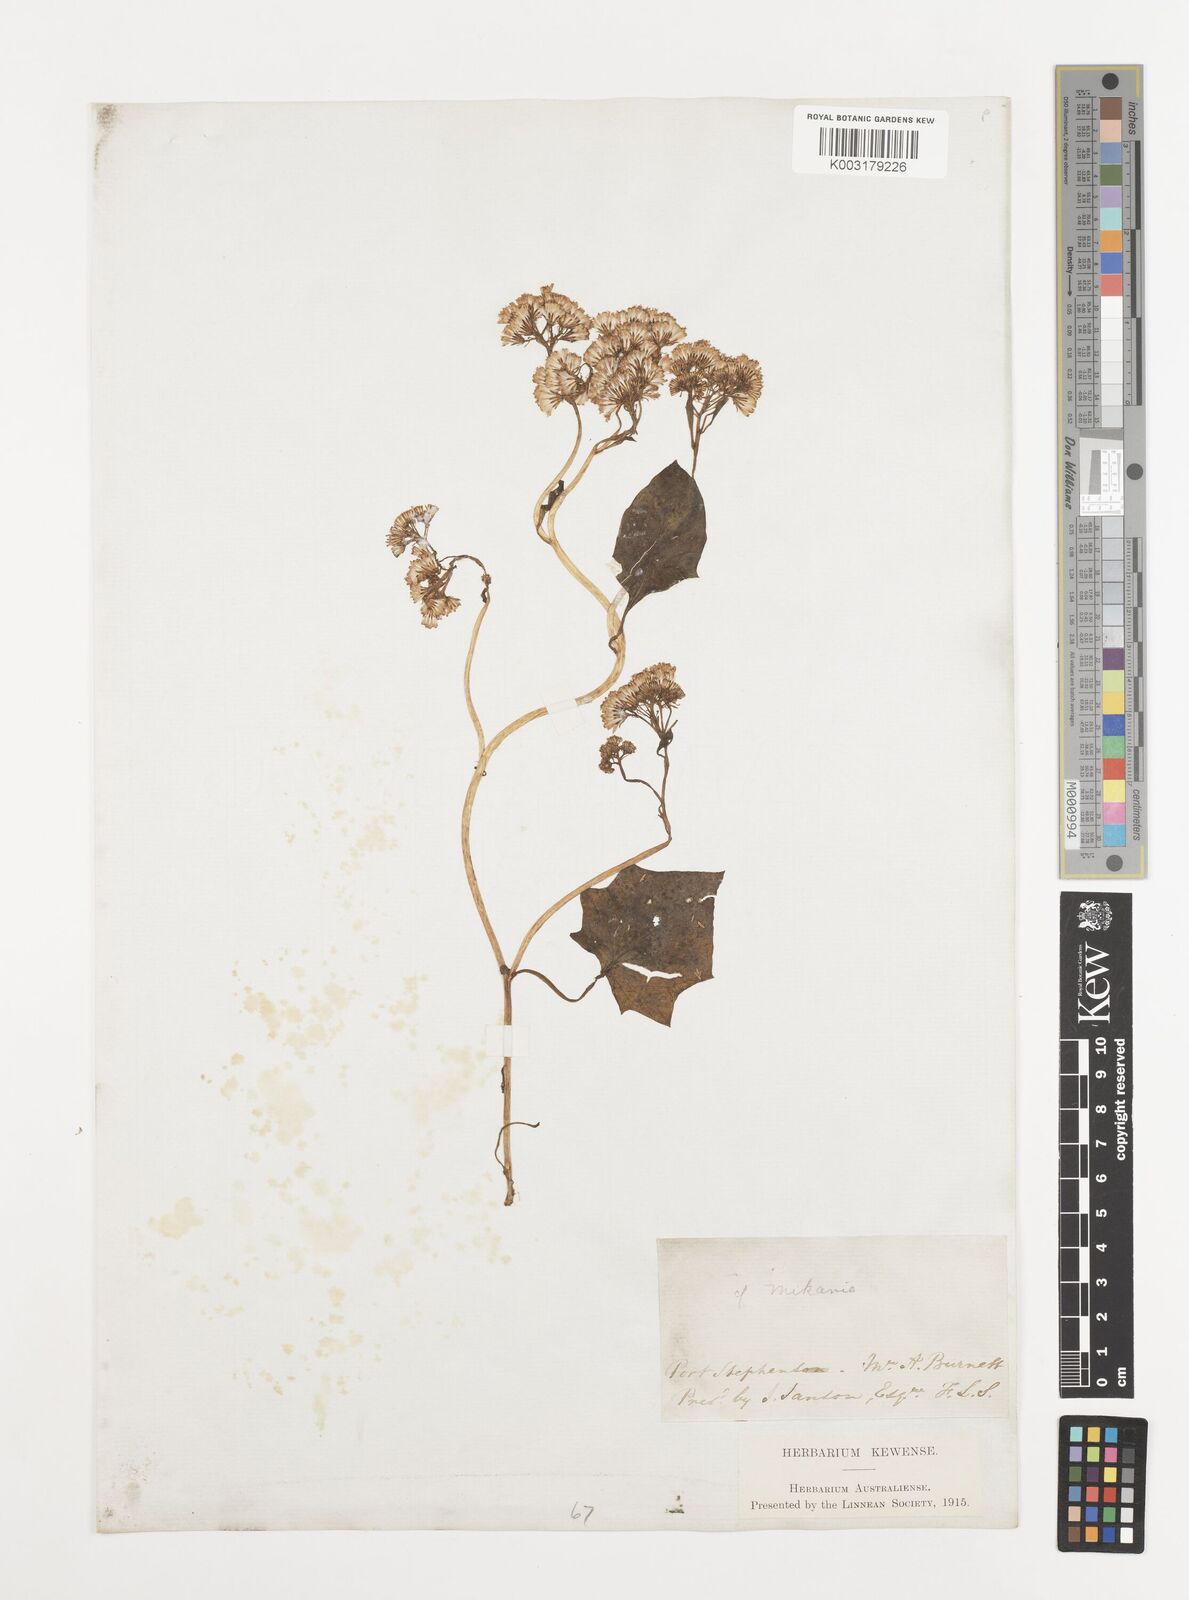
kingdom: Plantae
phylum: Tracheophyta
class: Magnoliopsida
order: Asterales
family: Asteraceae
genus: Mikania
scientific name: Mikania
